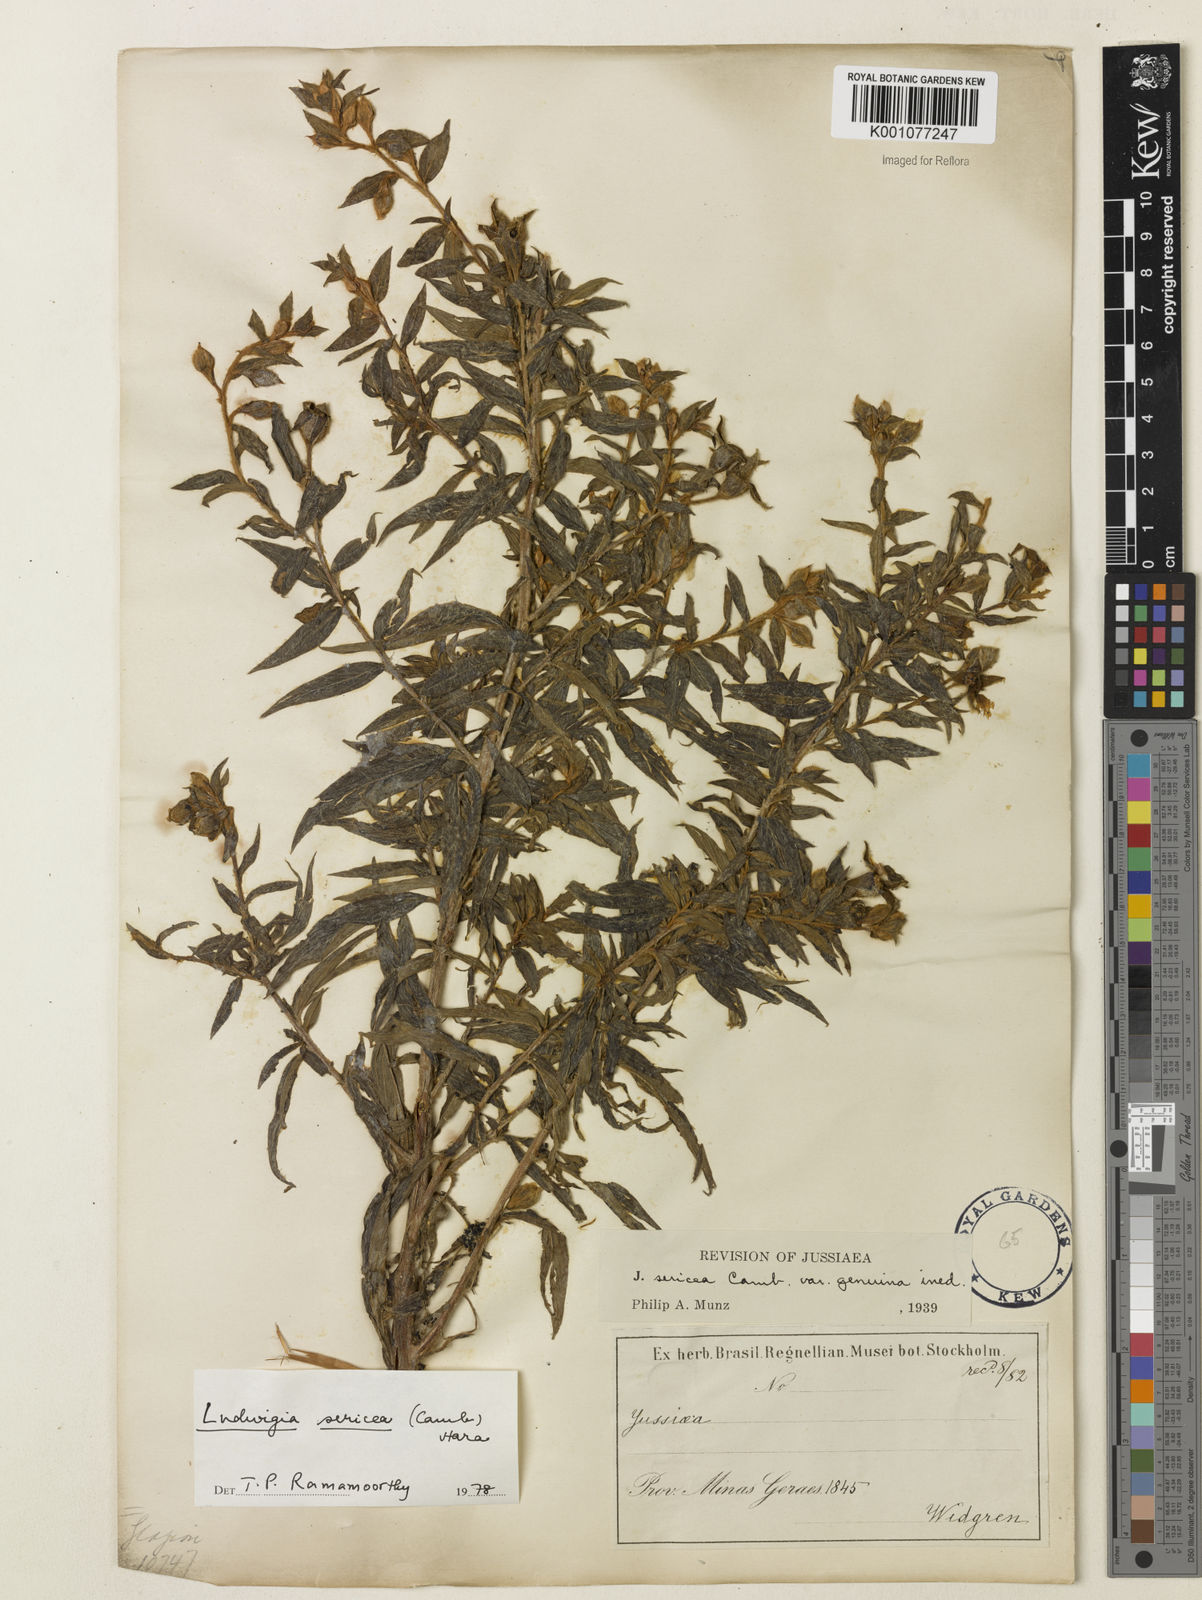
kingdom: Plantae
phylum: Tracheophyta
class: Magnoliopsida
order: Myrtales
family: Onagraceae
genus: Ludwigia
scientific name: Ludwigia sericea
